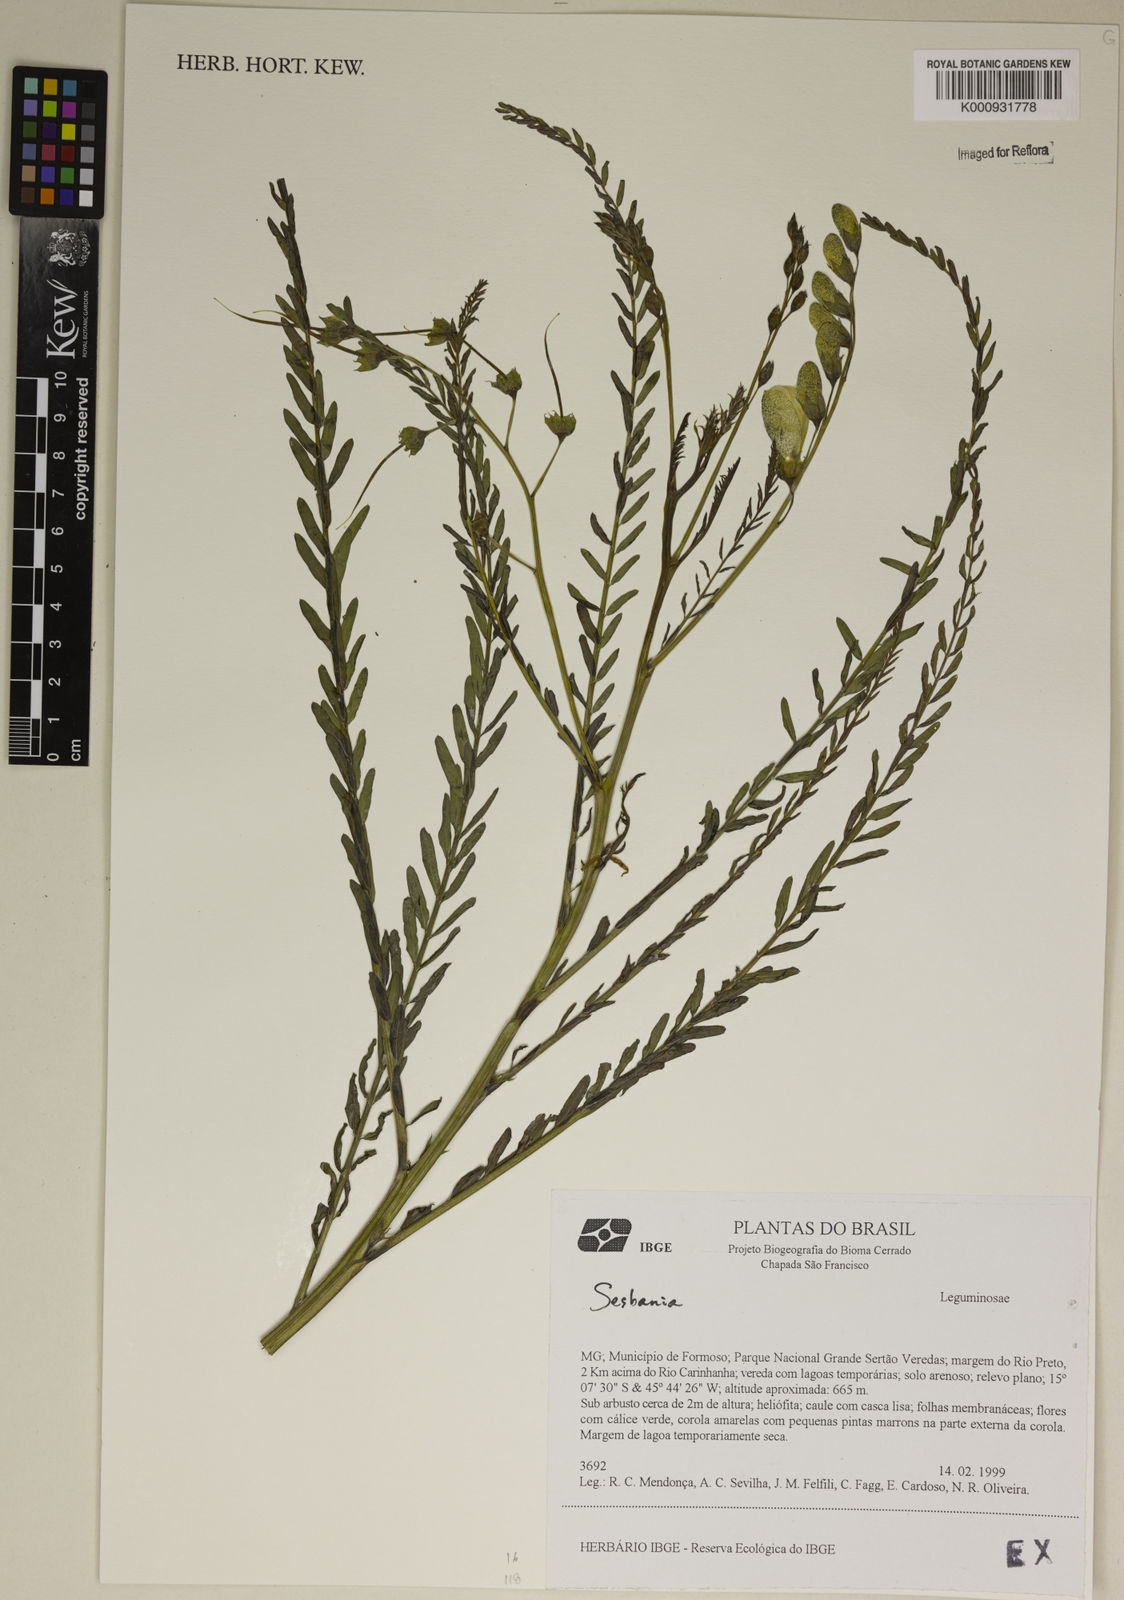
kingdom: Plantae
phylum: Tracheophyta
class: Magnoliopsida
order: Fabales
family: Fabaceae
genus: Sesbania
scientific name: Sesbania
